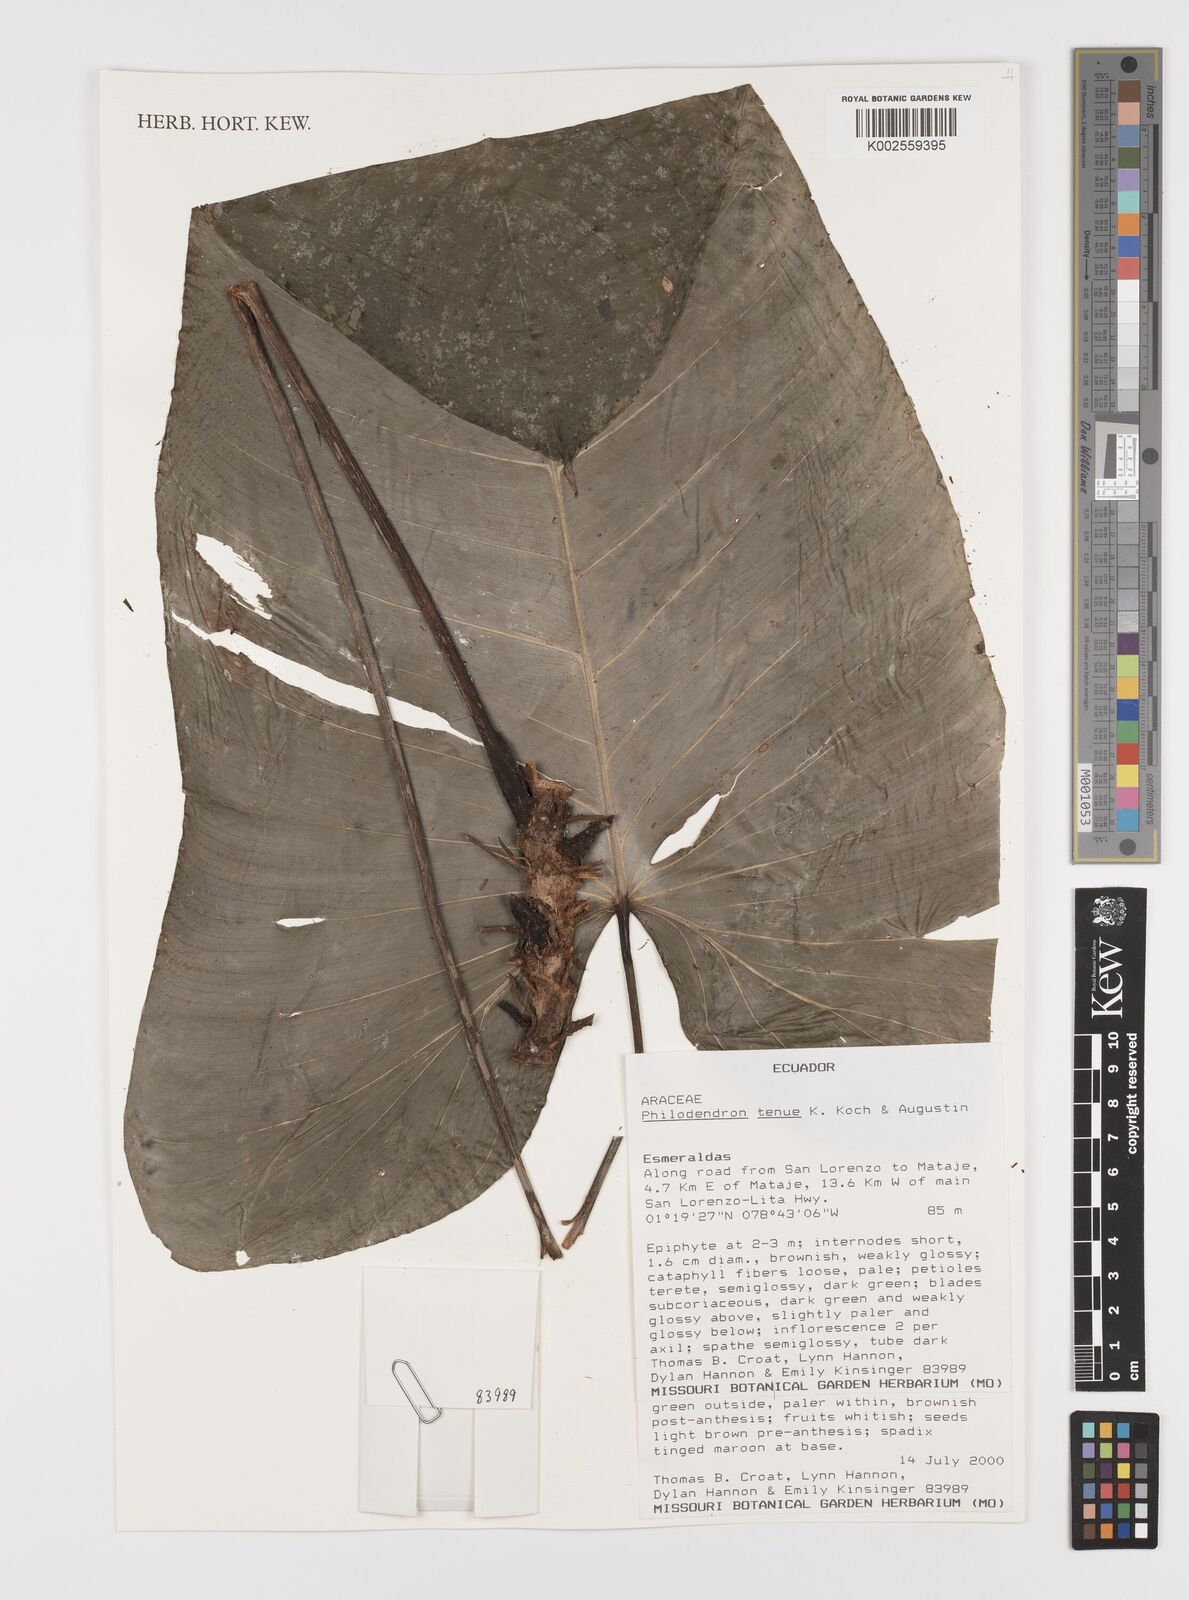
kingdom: Plantae
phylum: Tracheophyta
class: Liliopsida
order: Alismatales
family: Araceae
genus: Philodendron
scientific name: Philodendron tenue
